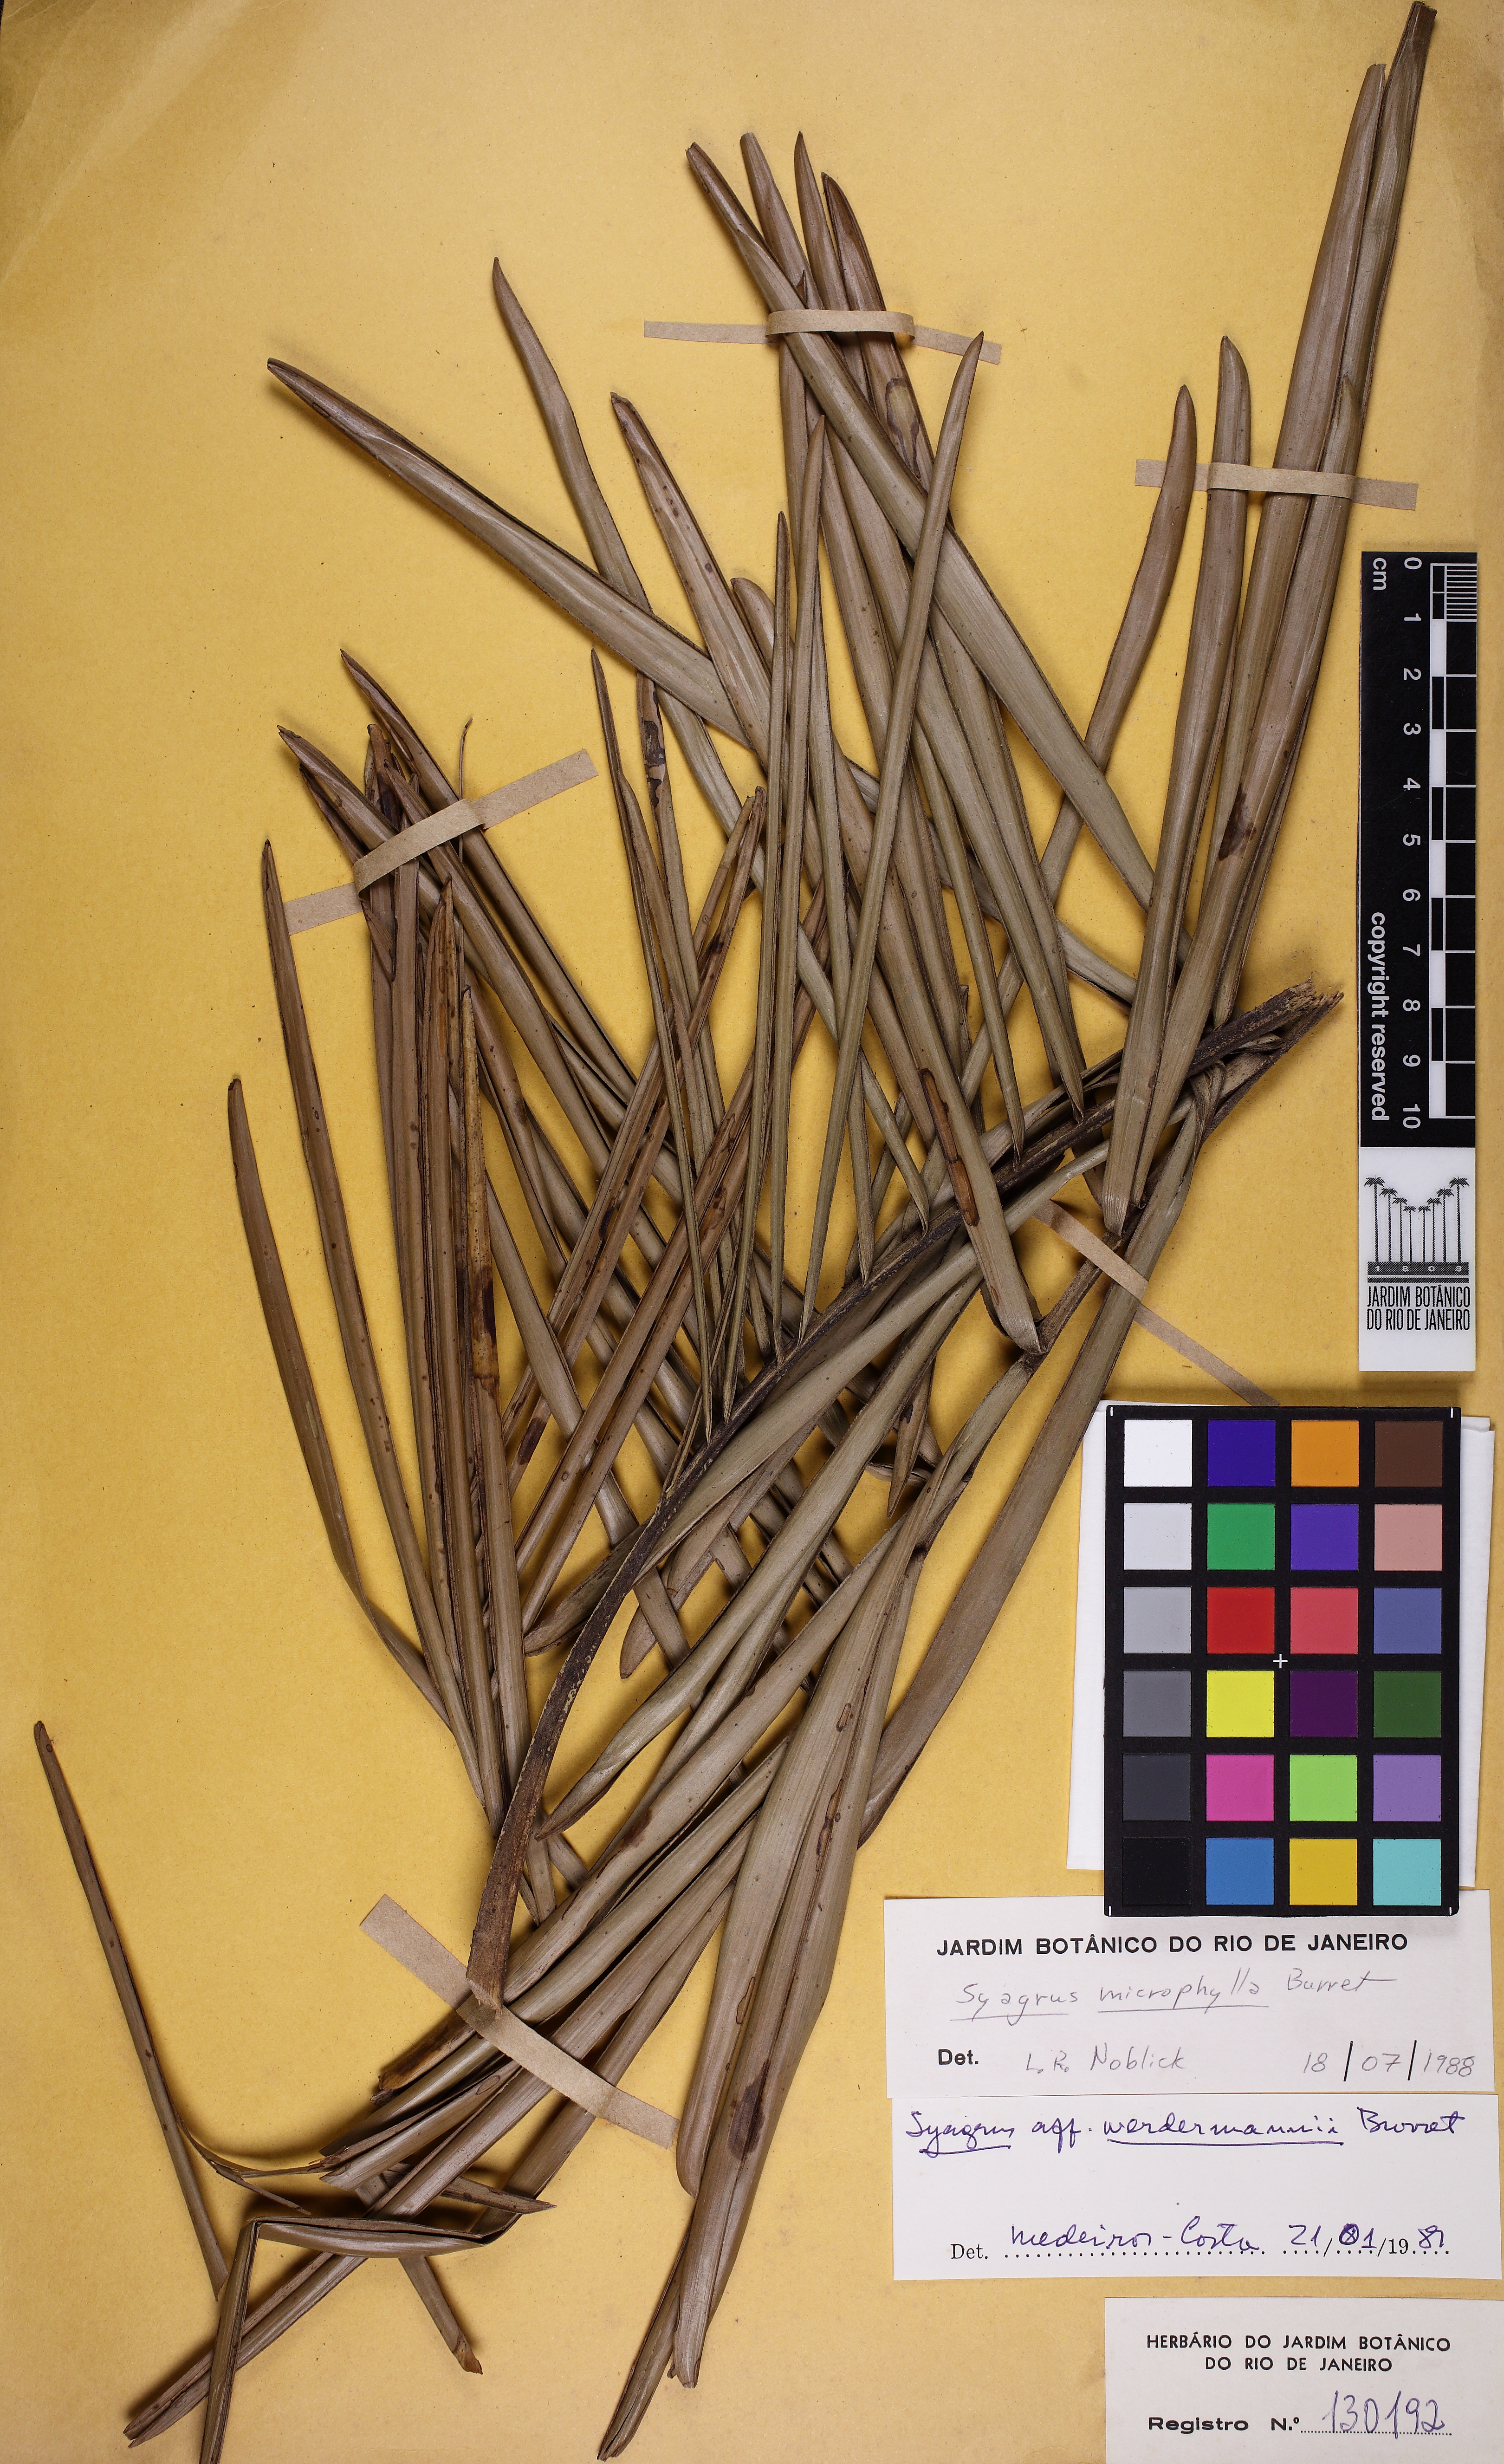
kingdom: Plantae
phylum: Tracheophyta
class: Liliopsida
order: Arecales
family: Arecaceae
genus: Syagrus
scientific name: Syagrus microphylla
